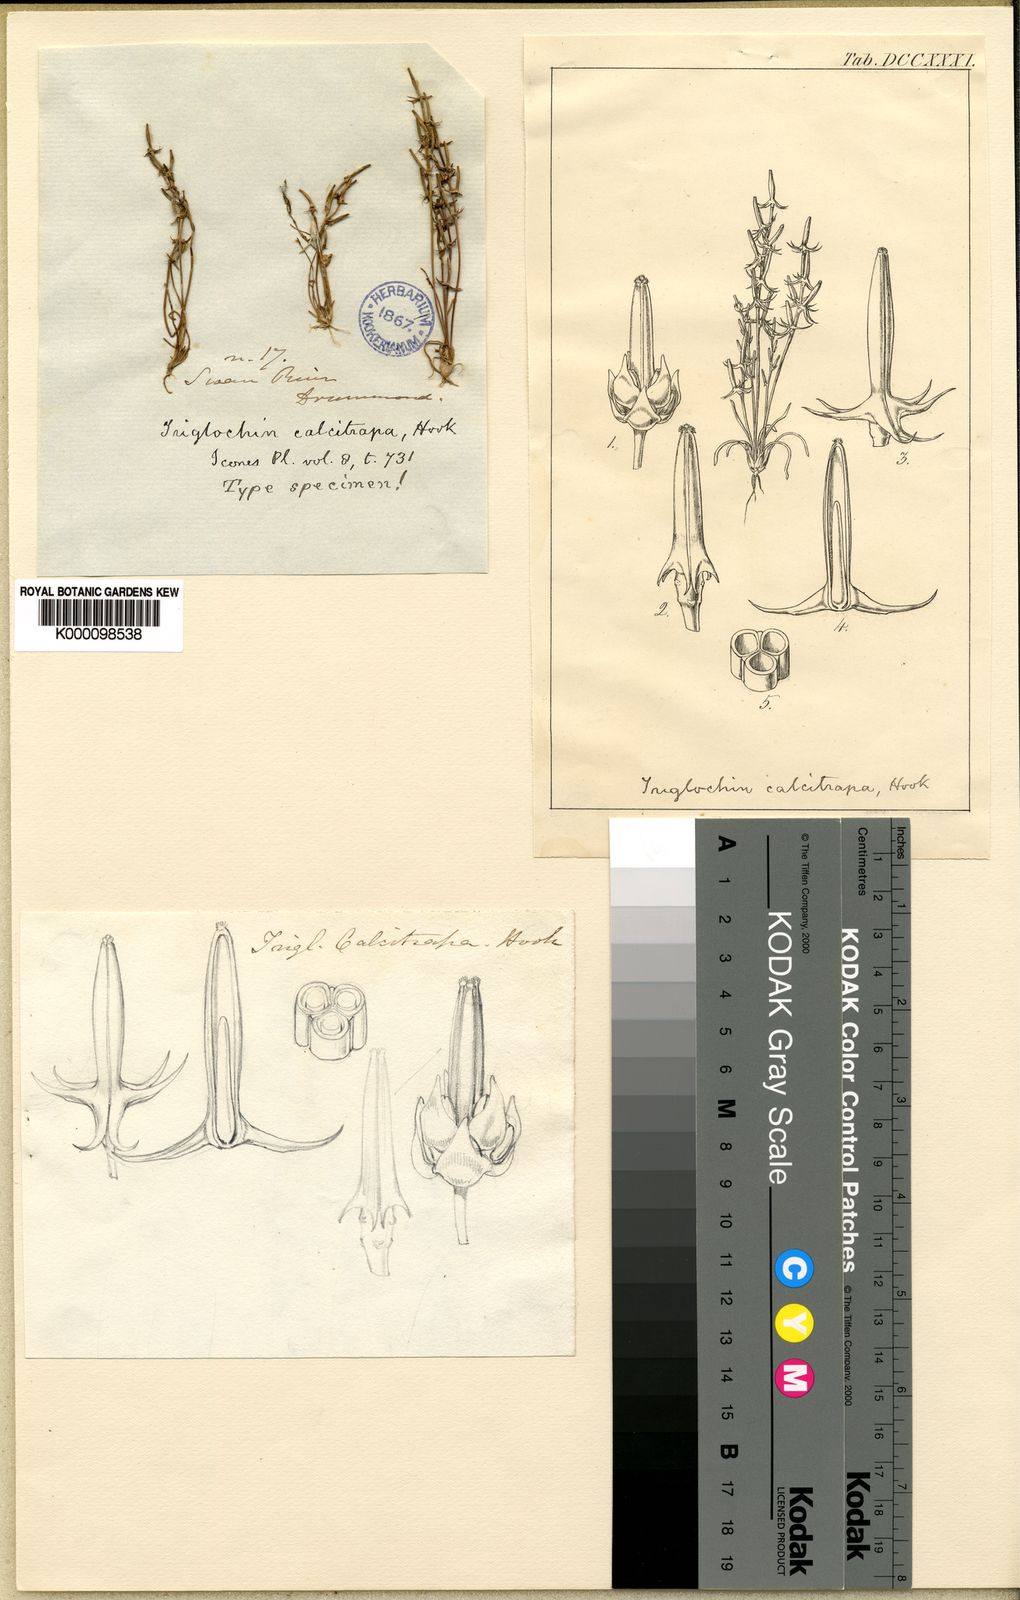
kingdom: Plantae
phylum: Tracheophyta
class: Liliopsida
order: Alismatales
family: Juncaginaceae
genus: Triglochin
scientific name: Triglochin calcitrapa
